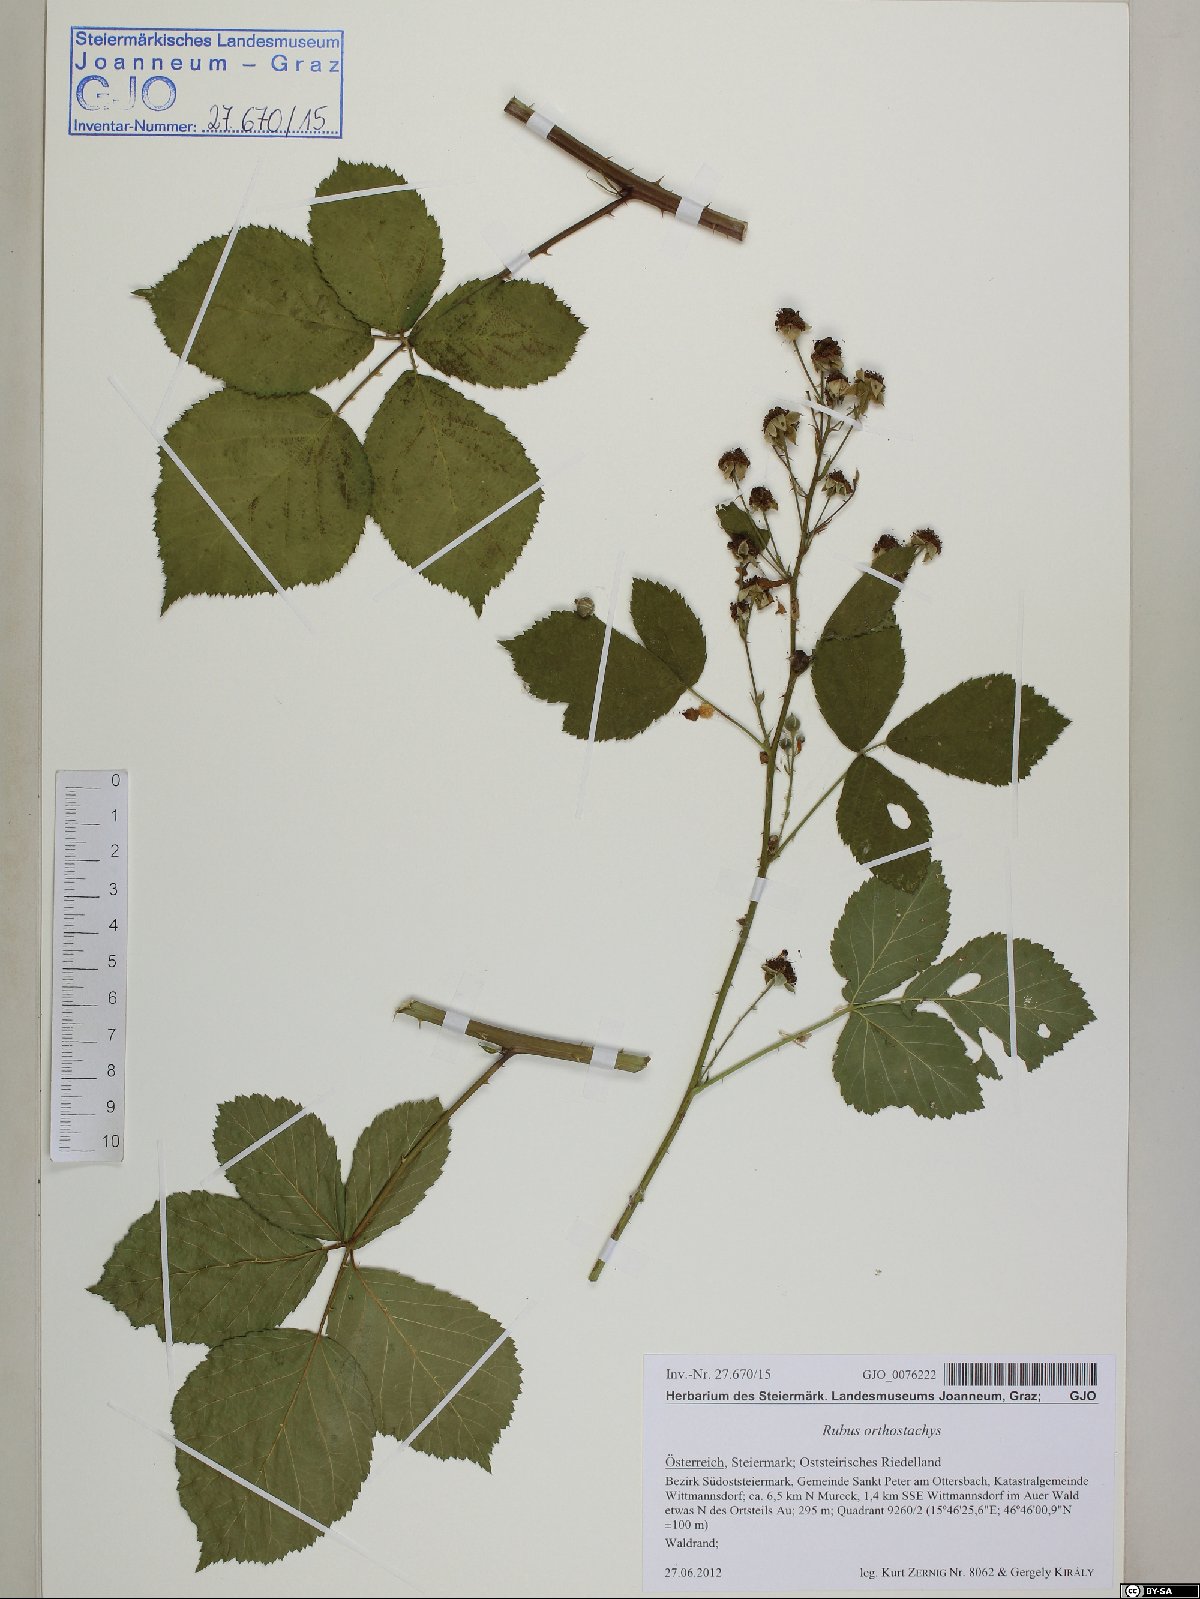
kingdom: Plantae
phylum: Tracheophyta
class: Magnoliopsida
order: Rosales
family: Rosaceae
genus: Rubus
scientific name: Rubus orthostachys
